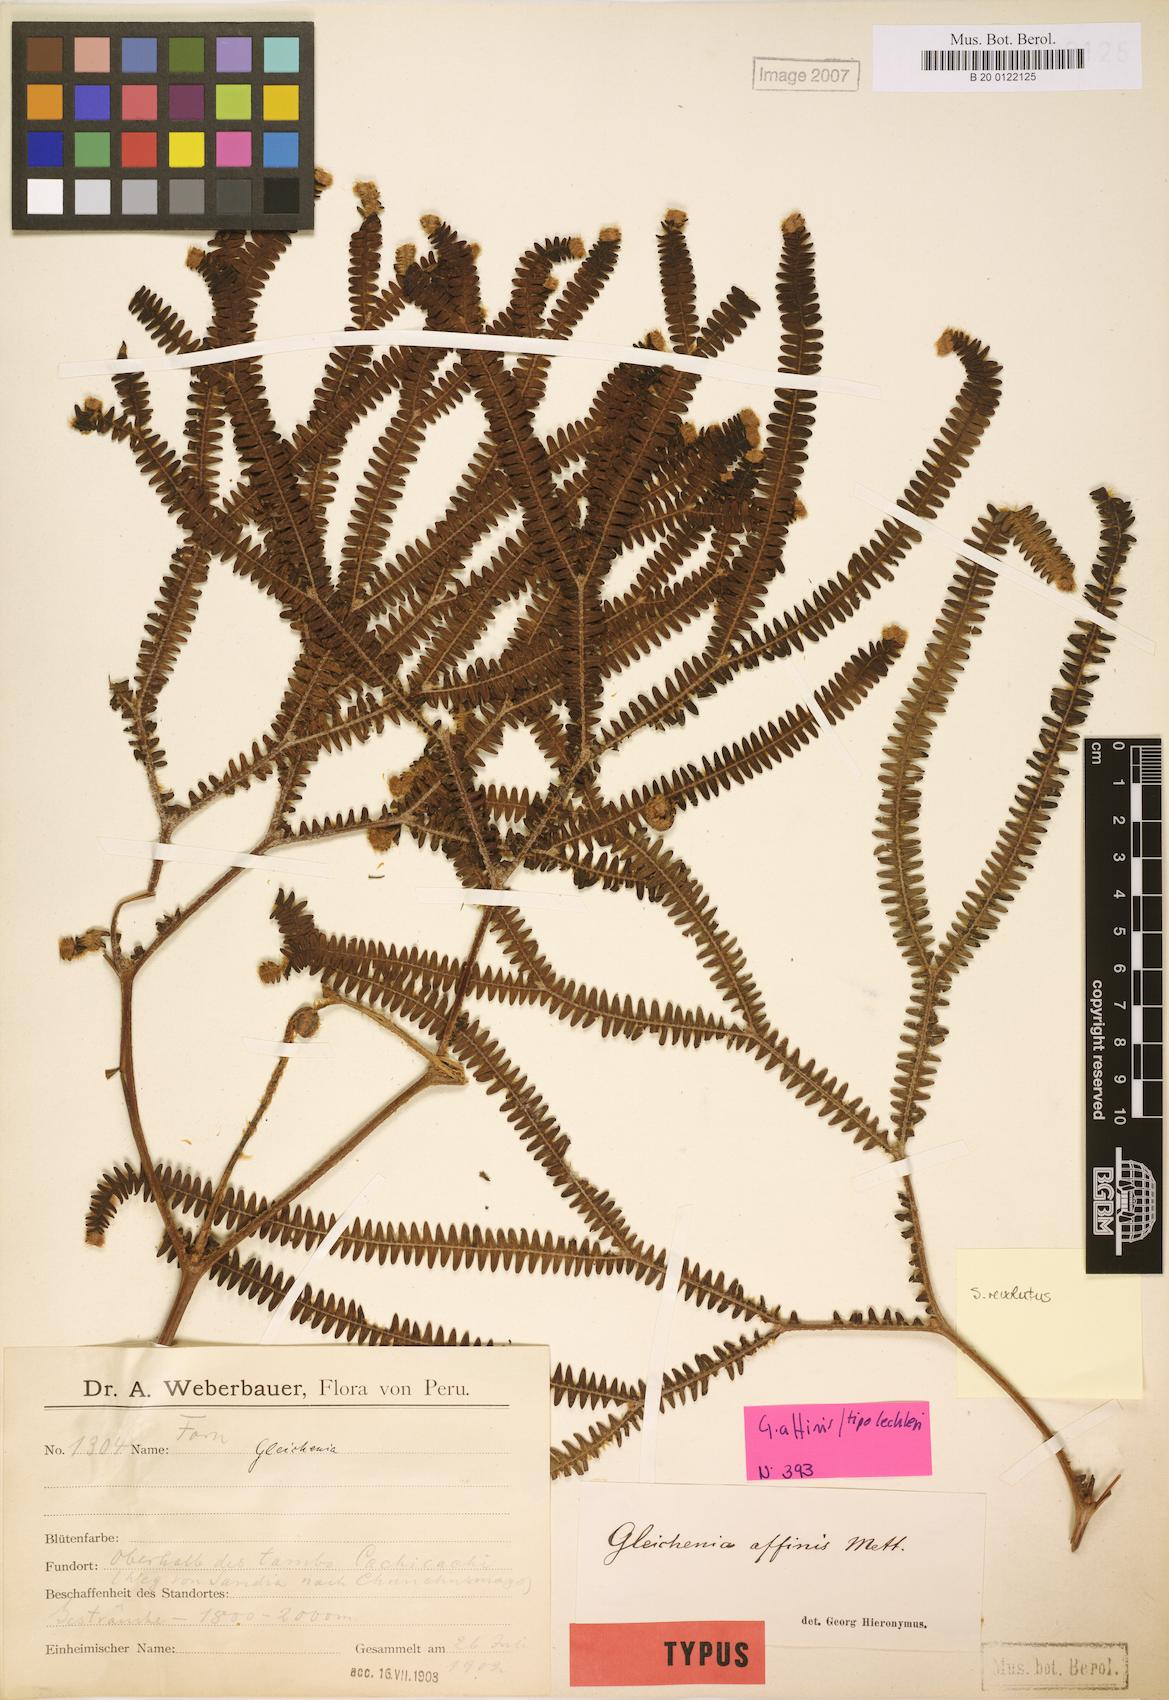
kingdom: Plantae
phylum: Tracheophyta
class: Polypodiopsida
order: Gleicheniales
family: Gleicheniaceae
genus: Sticherus
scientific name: Sticherus revolutus
